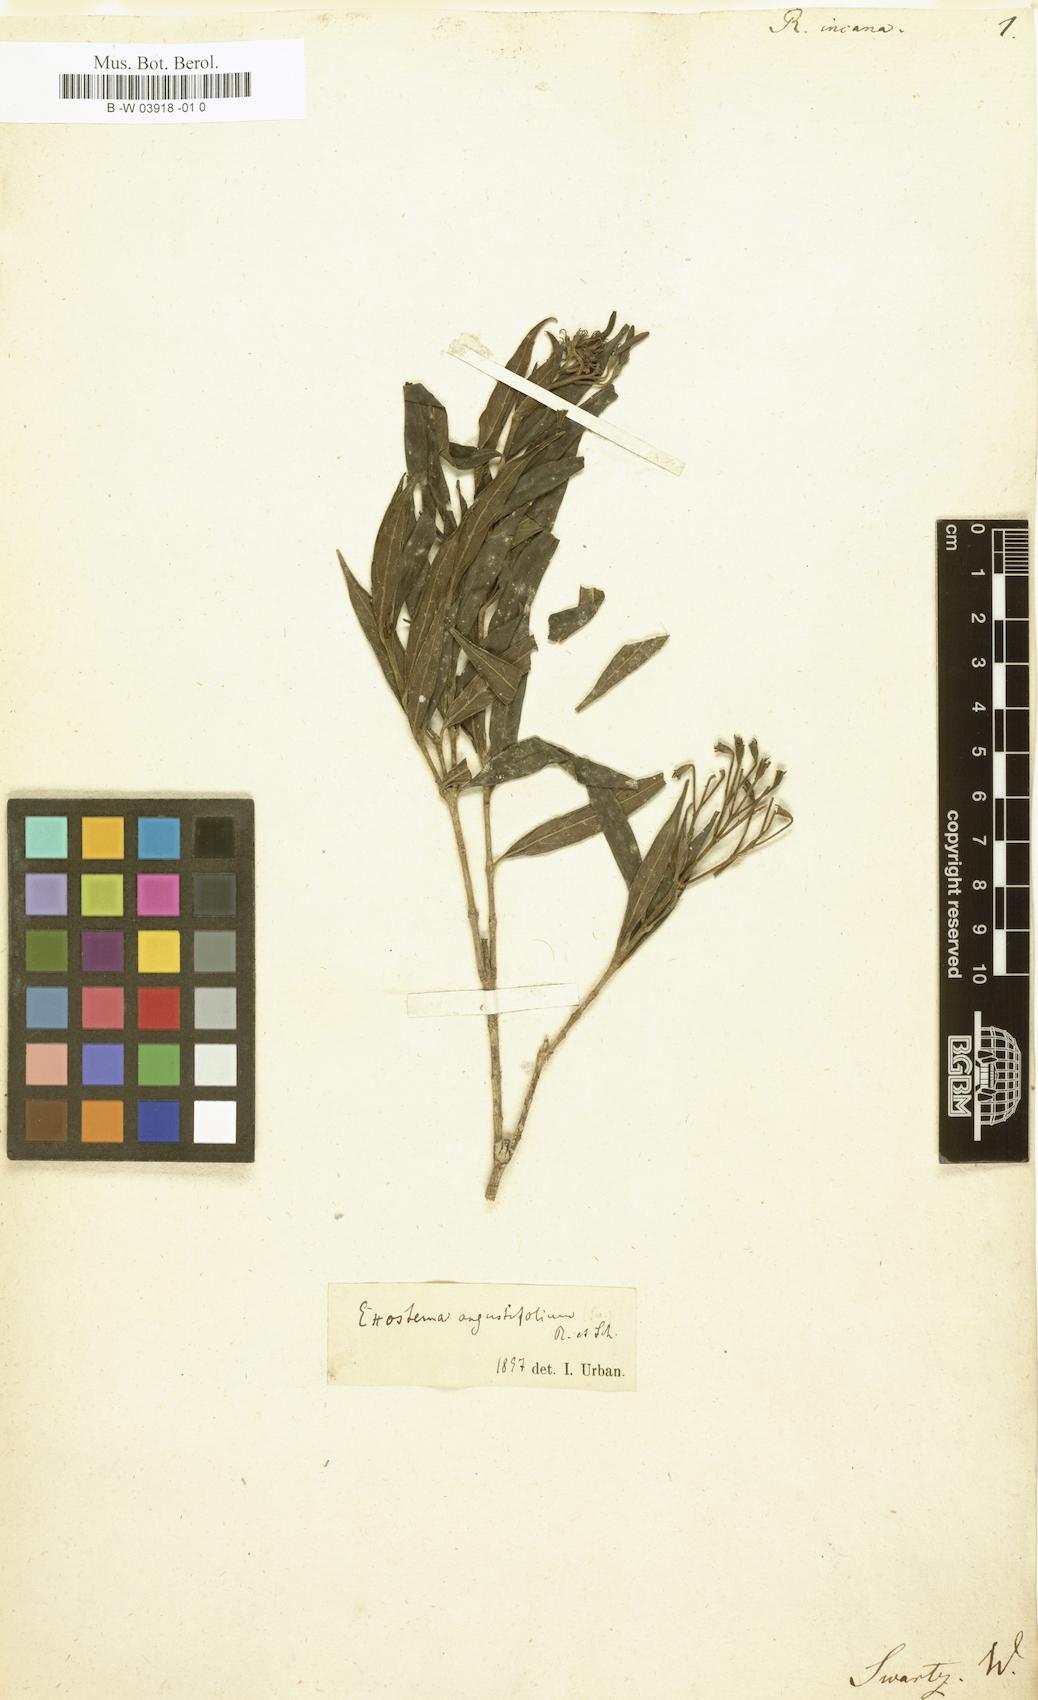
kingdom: Plantae
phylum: Tracheophyta
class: Magnoliopsida
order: Gentianales
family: Rubiaceae
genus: Rondeletia
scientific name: Rondeletia incana
